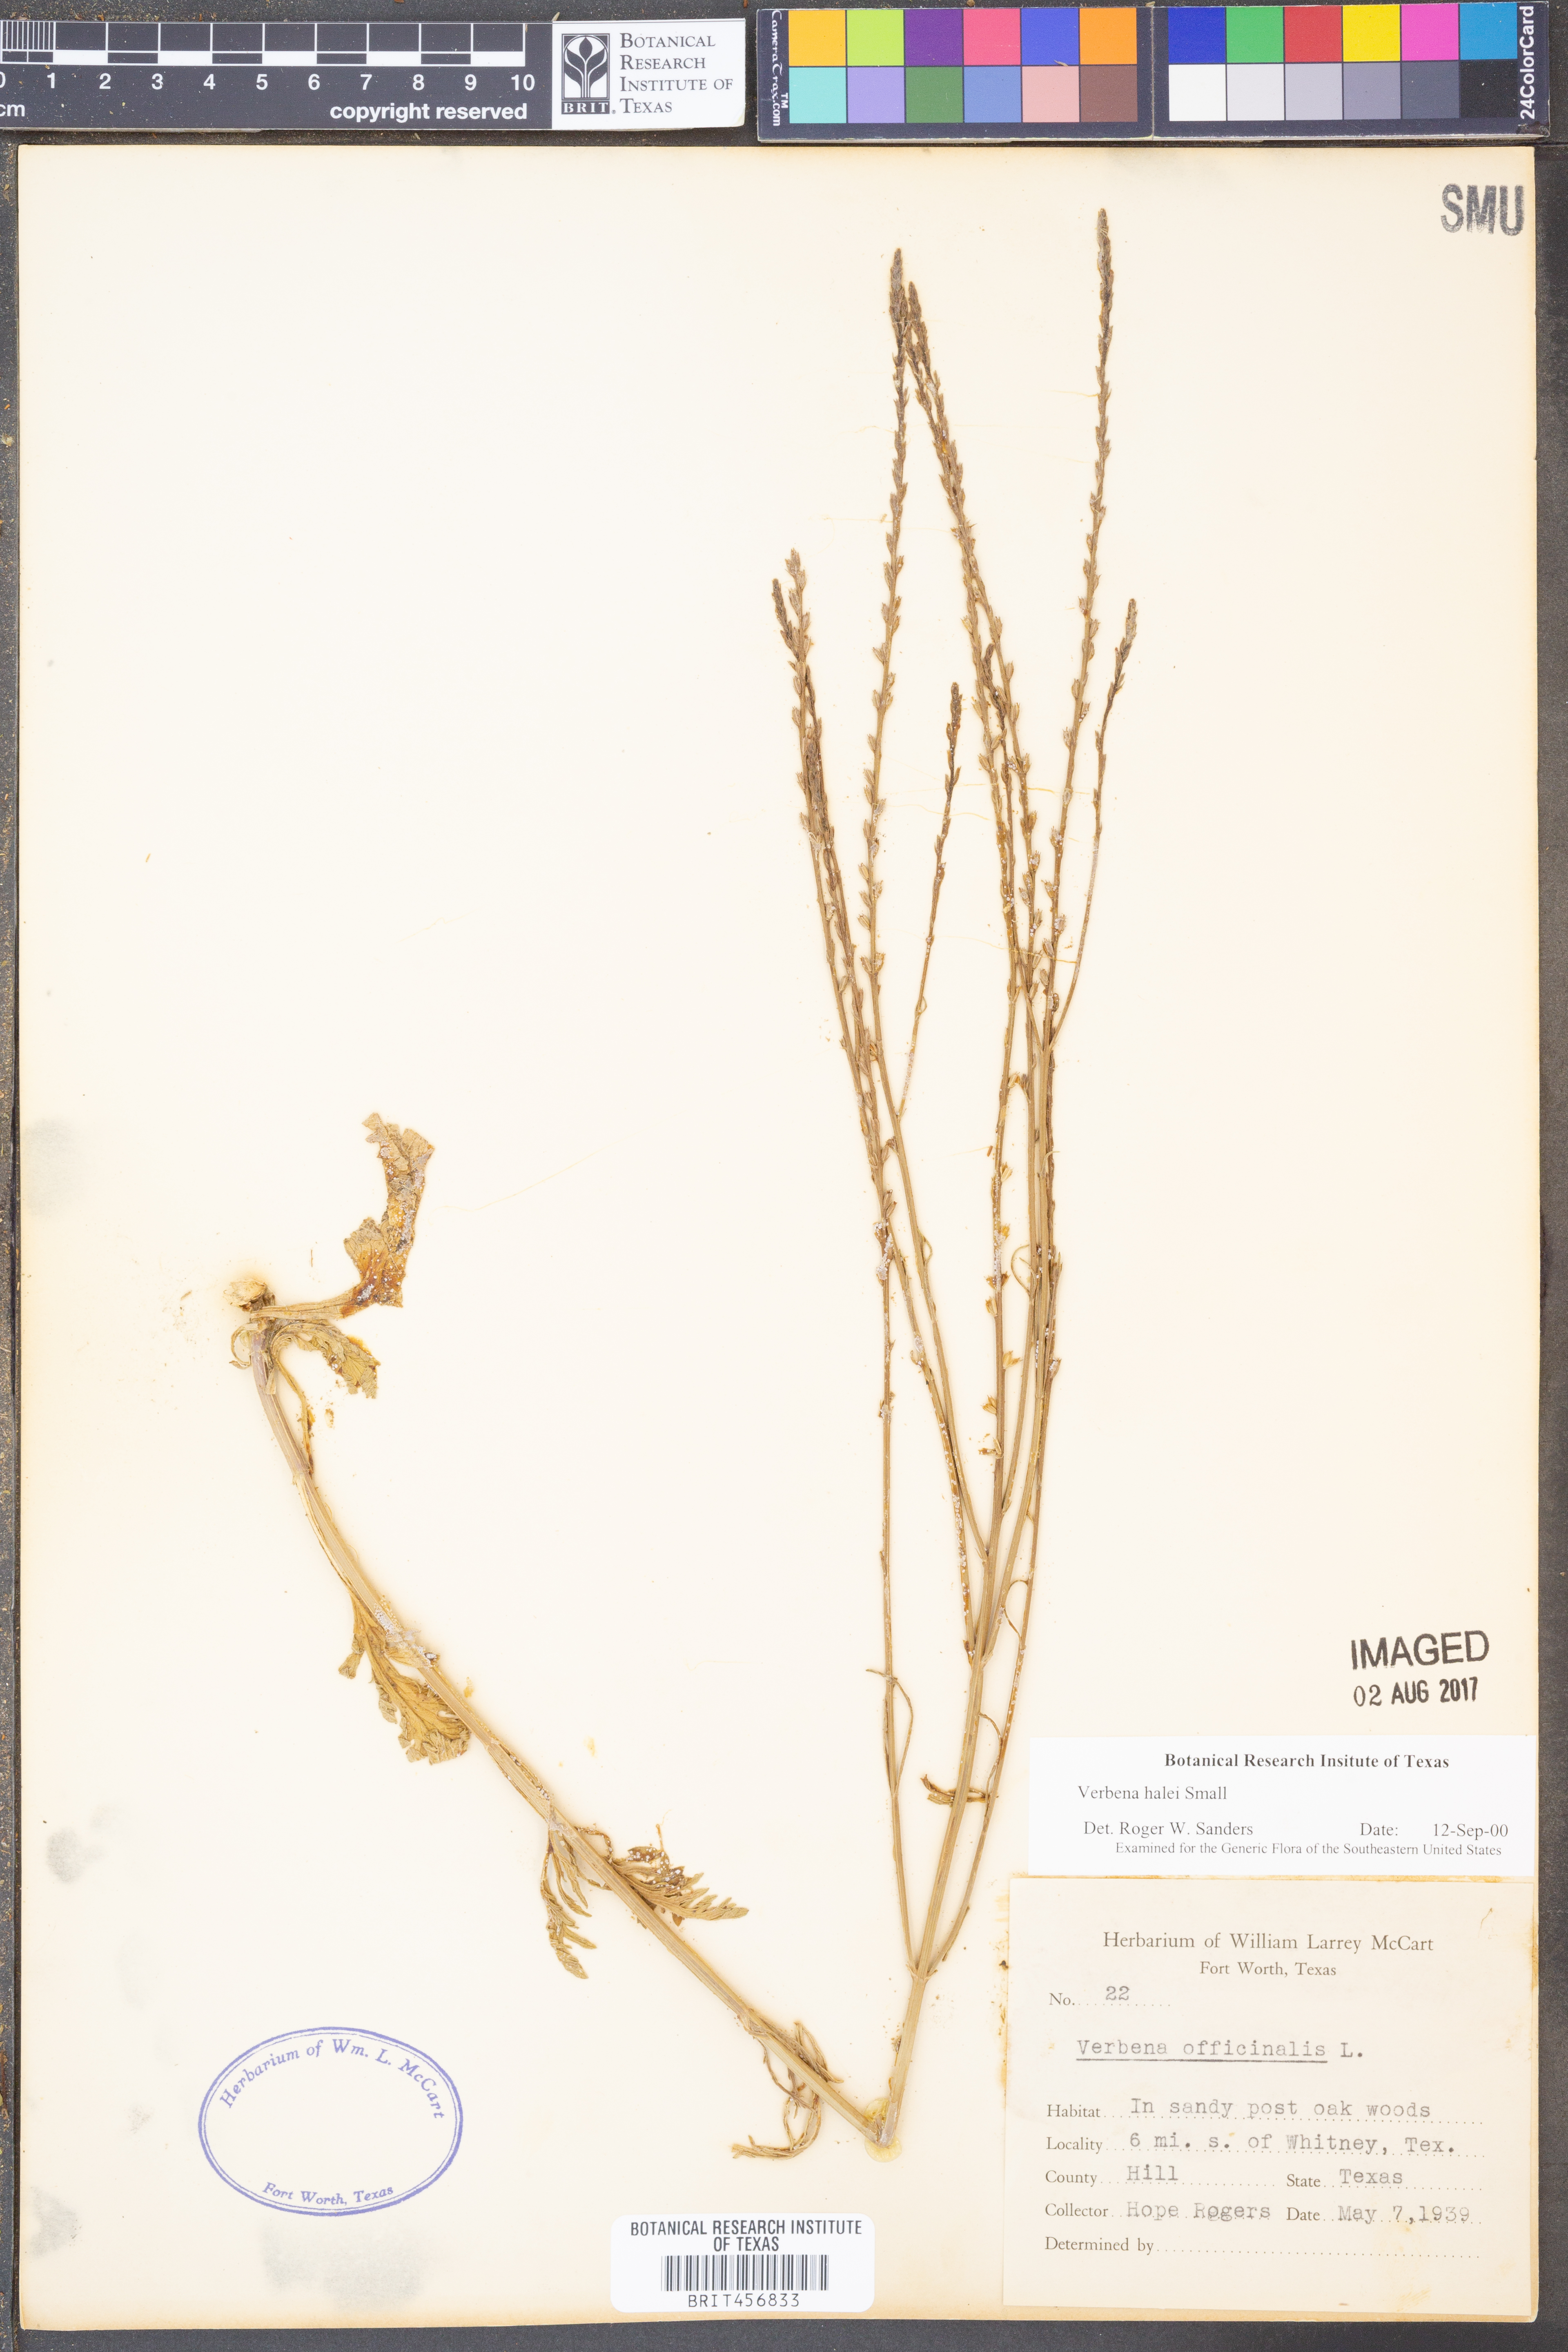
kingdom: Plantae
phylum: Tracheophyta
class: Magnoliopsida
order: Lamiales
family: Verbenaceae
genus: Verbena
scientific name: Verbena halei
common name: Texas vervain
